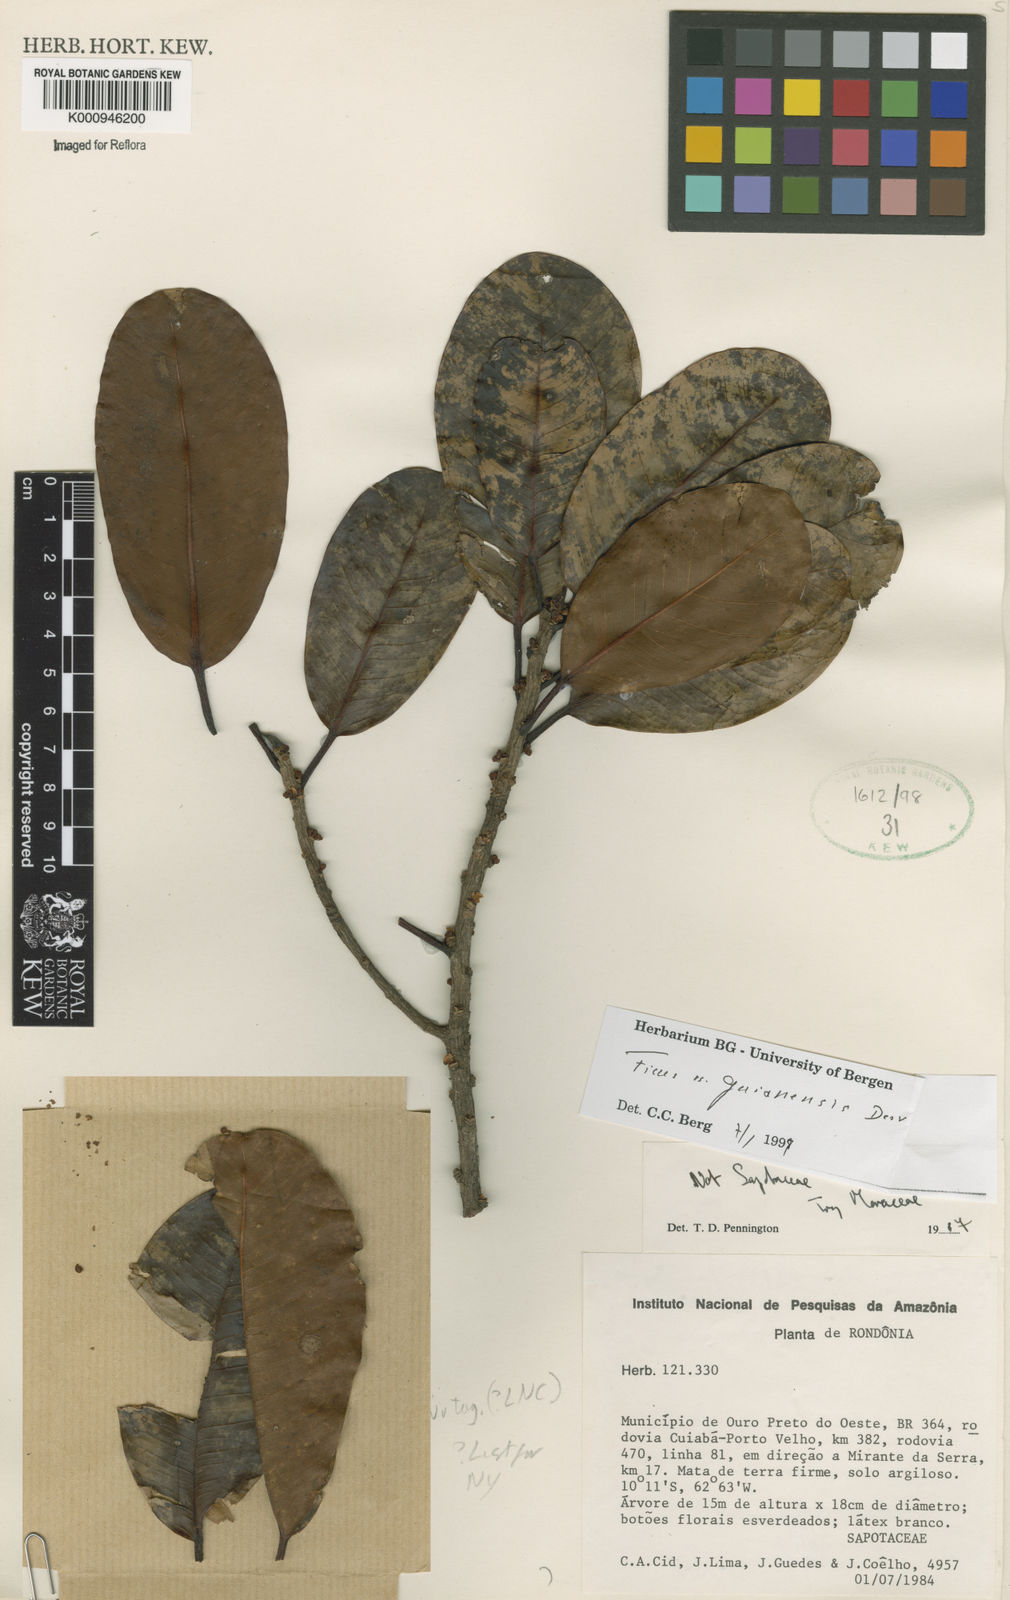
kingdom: Plantae
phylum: Tracheophyta
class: Magnoliopsida
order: Rosales
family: Moraceae
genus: Ficus
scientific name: Ficus
